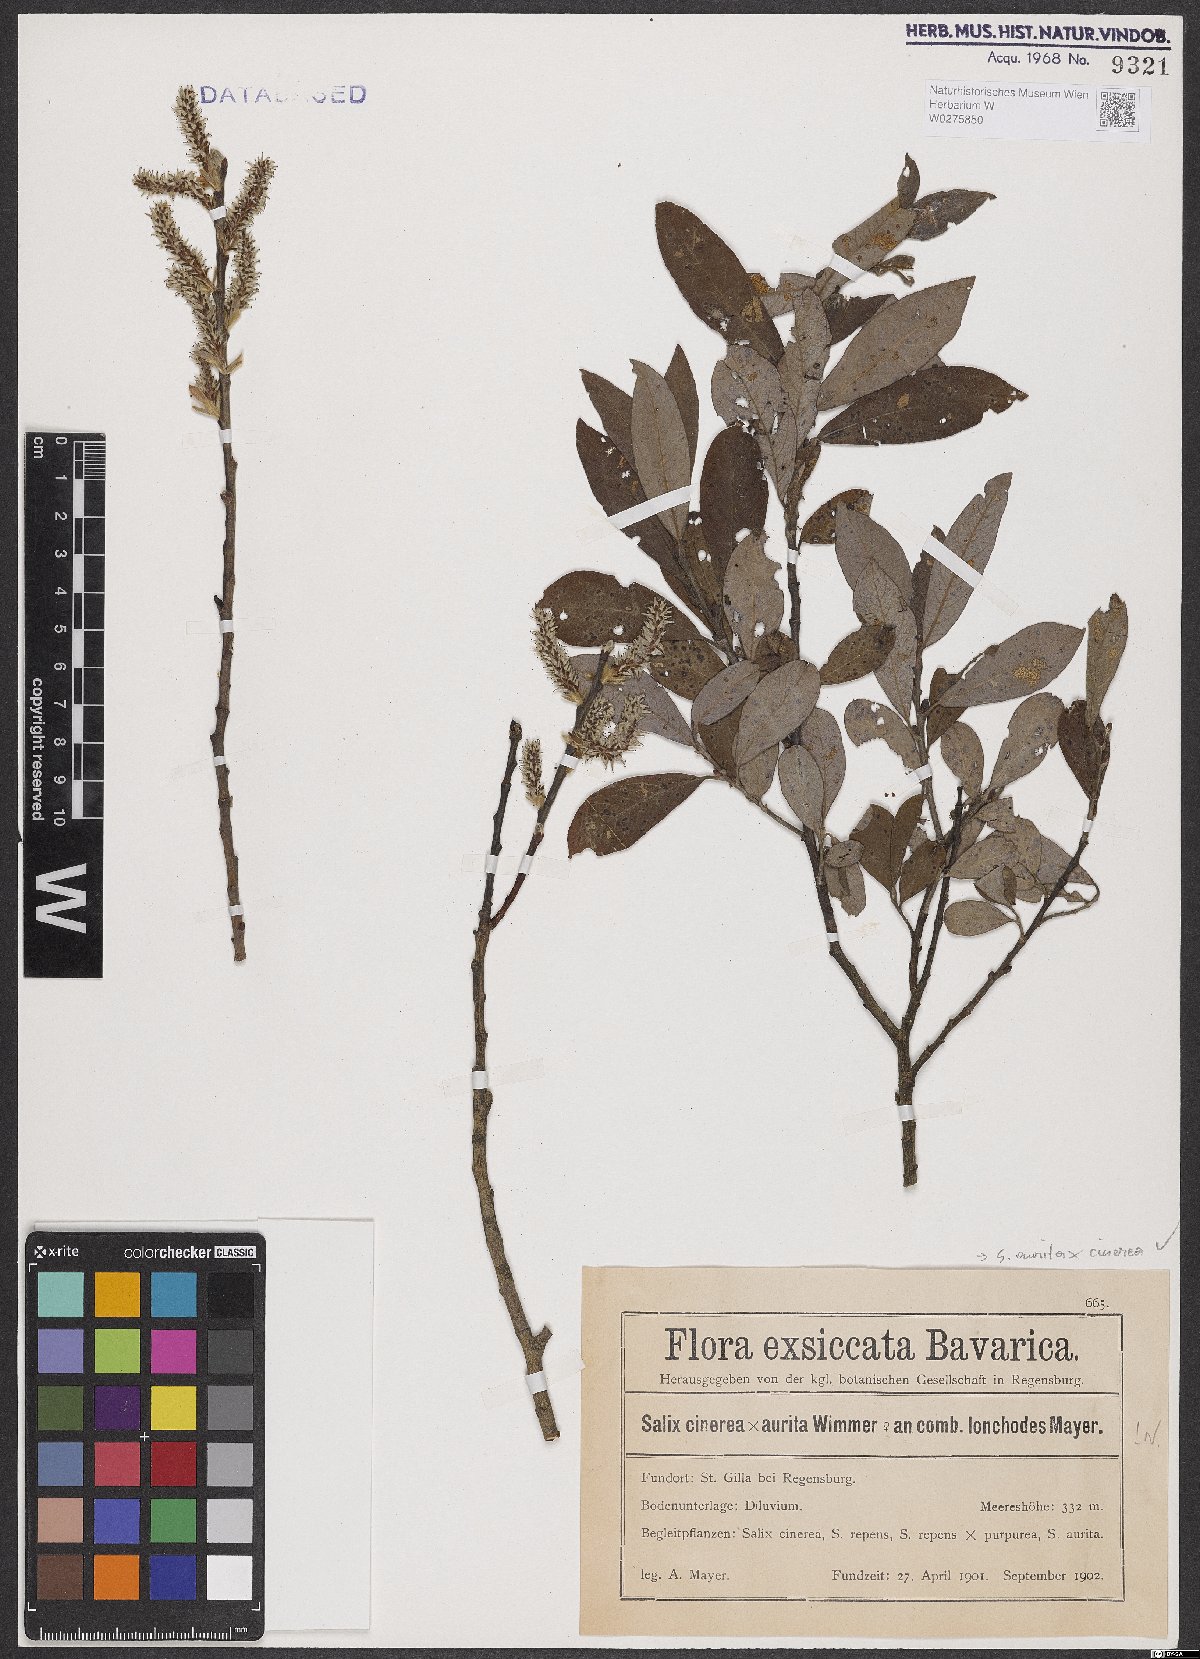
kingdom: Plantae
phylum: Tracheophyta
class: Magnoliopsida
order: Malpighiales
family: Salicaceae
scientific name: Salicaceae
